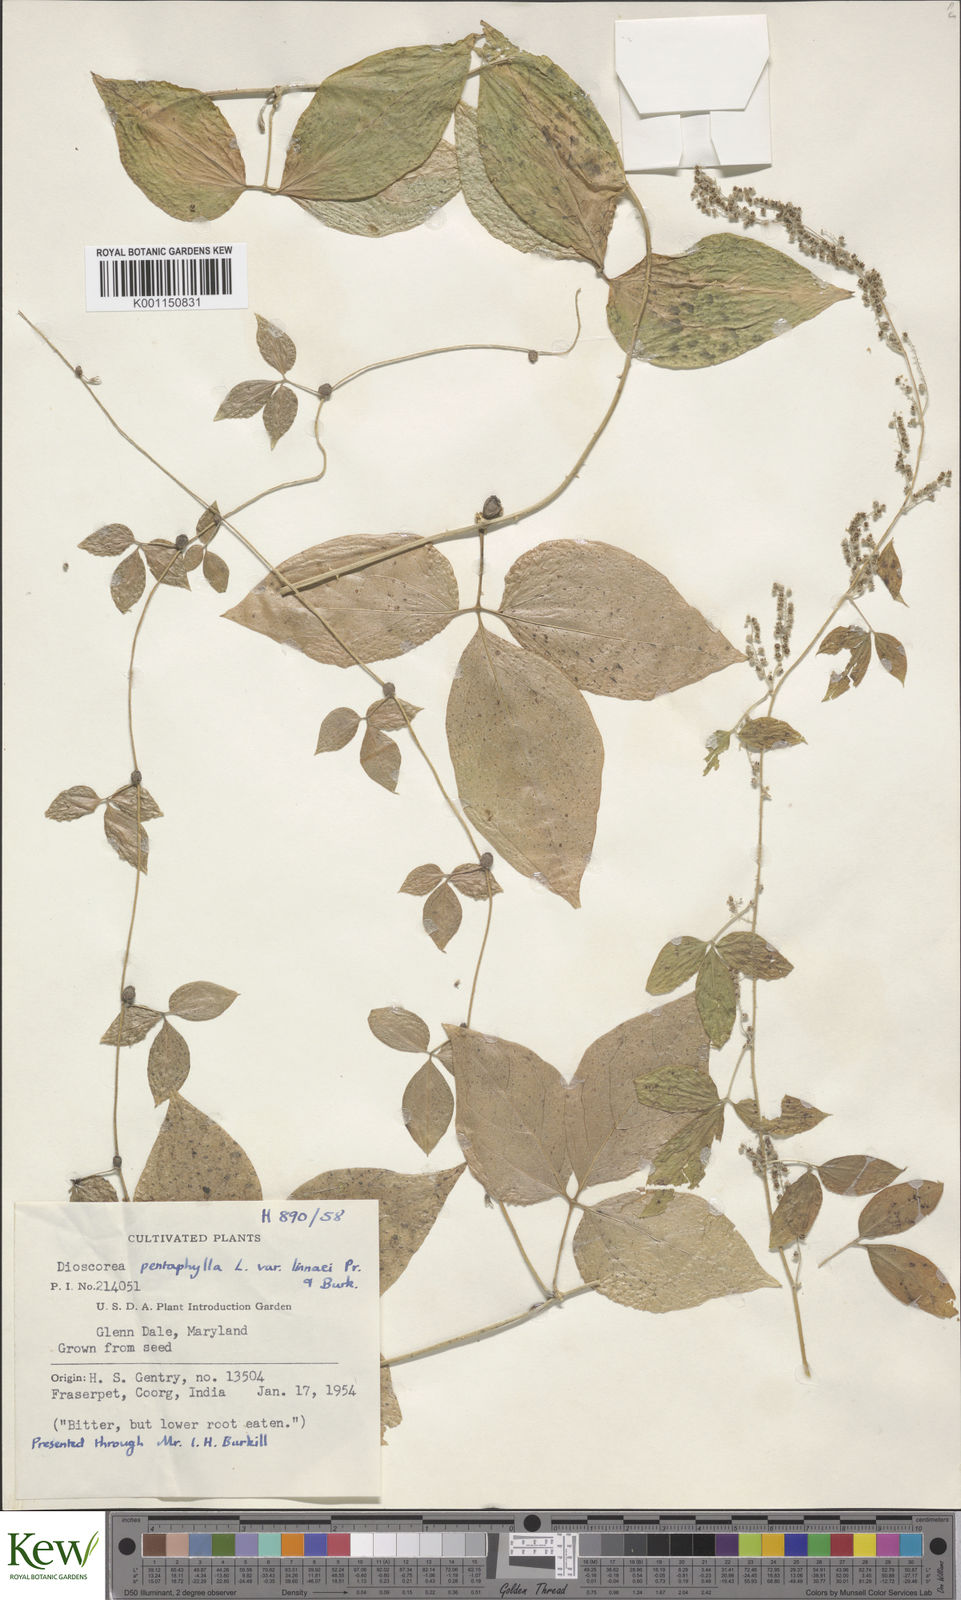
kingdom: Plantae
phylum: Tracheophyta
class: Liliopsida
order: Dioscoreales
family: Dioscoreaceae
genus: Dioscorea
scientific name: Dioscorea pentaphylla
